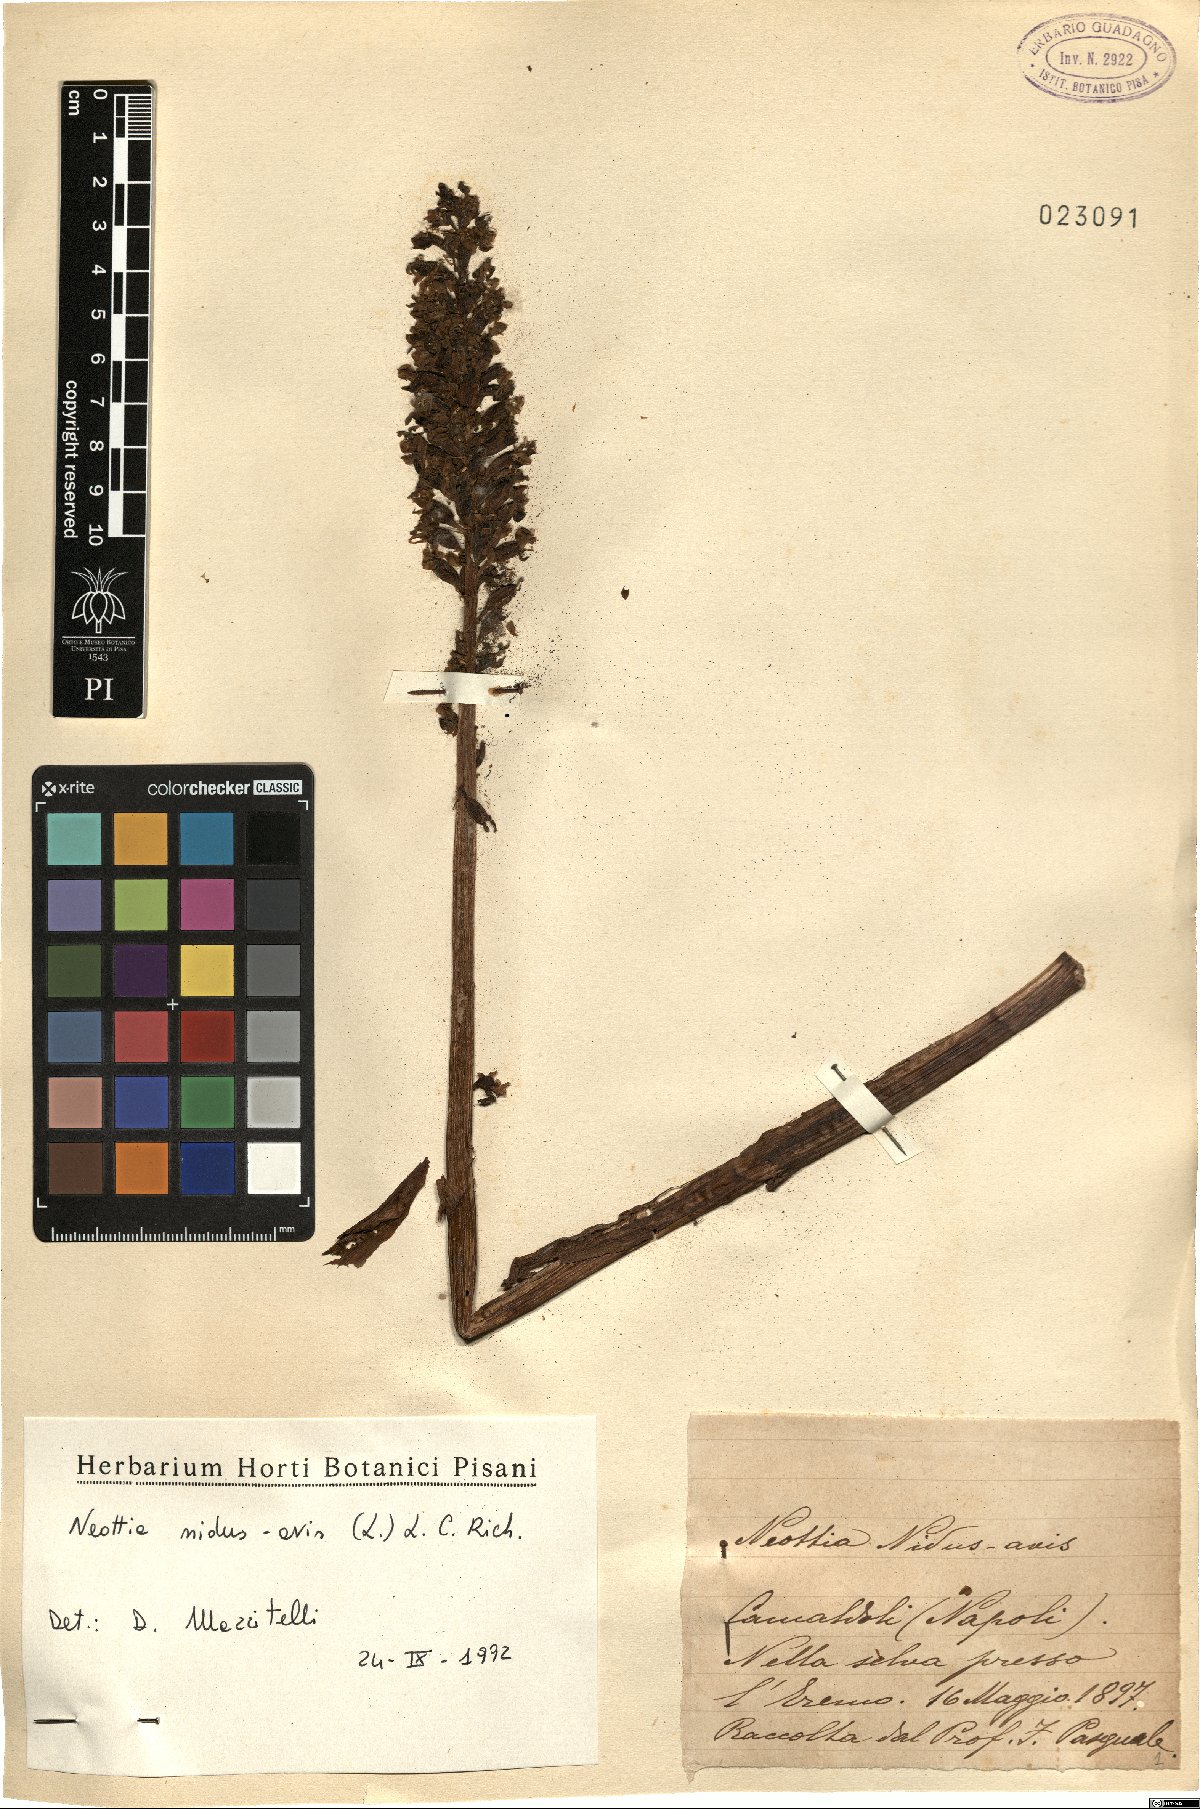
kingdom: Plantae
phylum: Tracheophyta
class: Liliopsida
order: Asparagales
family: Orchidaceae
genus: Neottia
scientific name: Neottia nidus-avis
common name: Bird's-nest orchid
